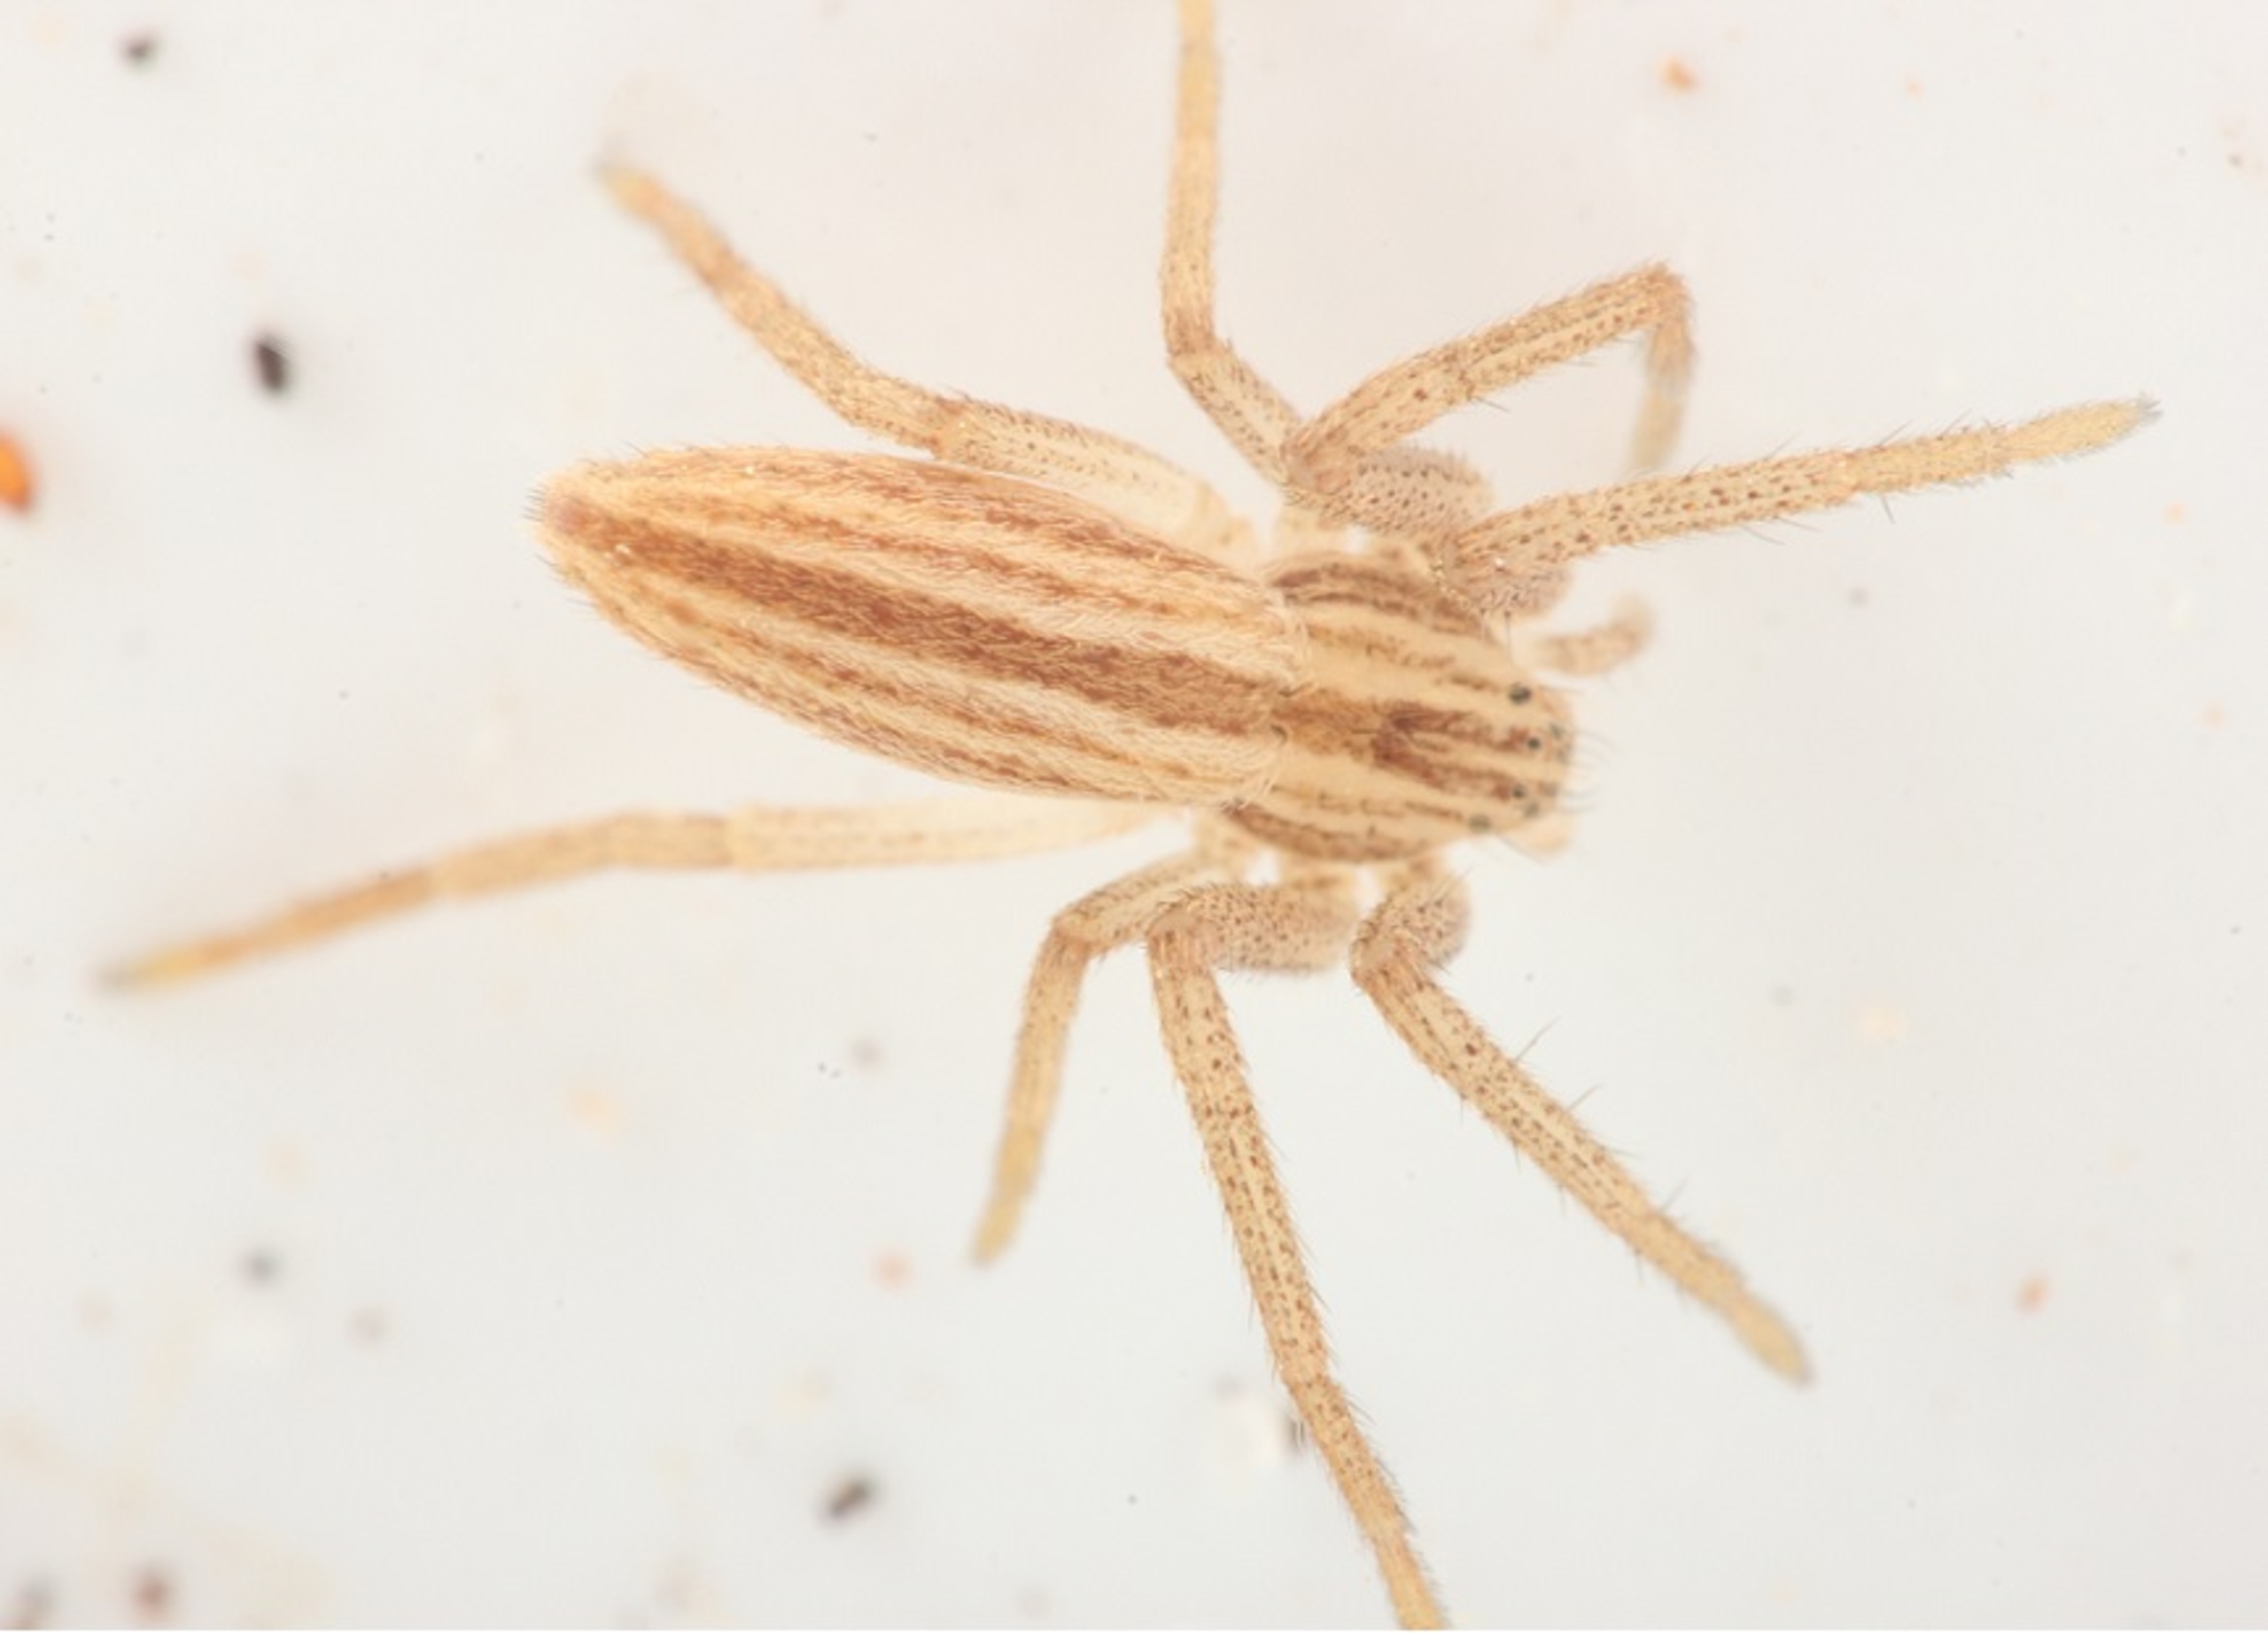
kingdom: Animalia
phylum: Arthropoda
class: Arachnida
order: Araneae
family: Philodromidae
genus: Tibellus
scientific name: Tibellus
